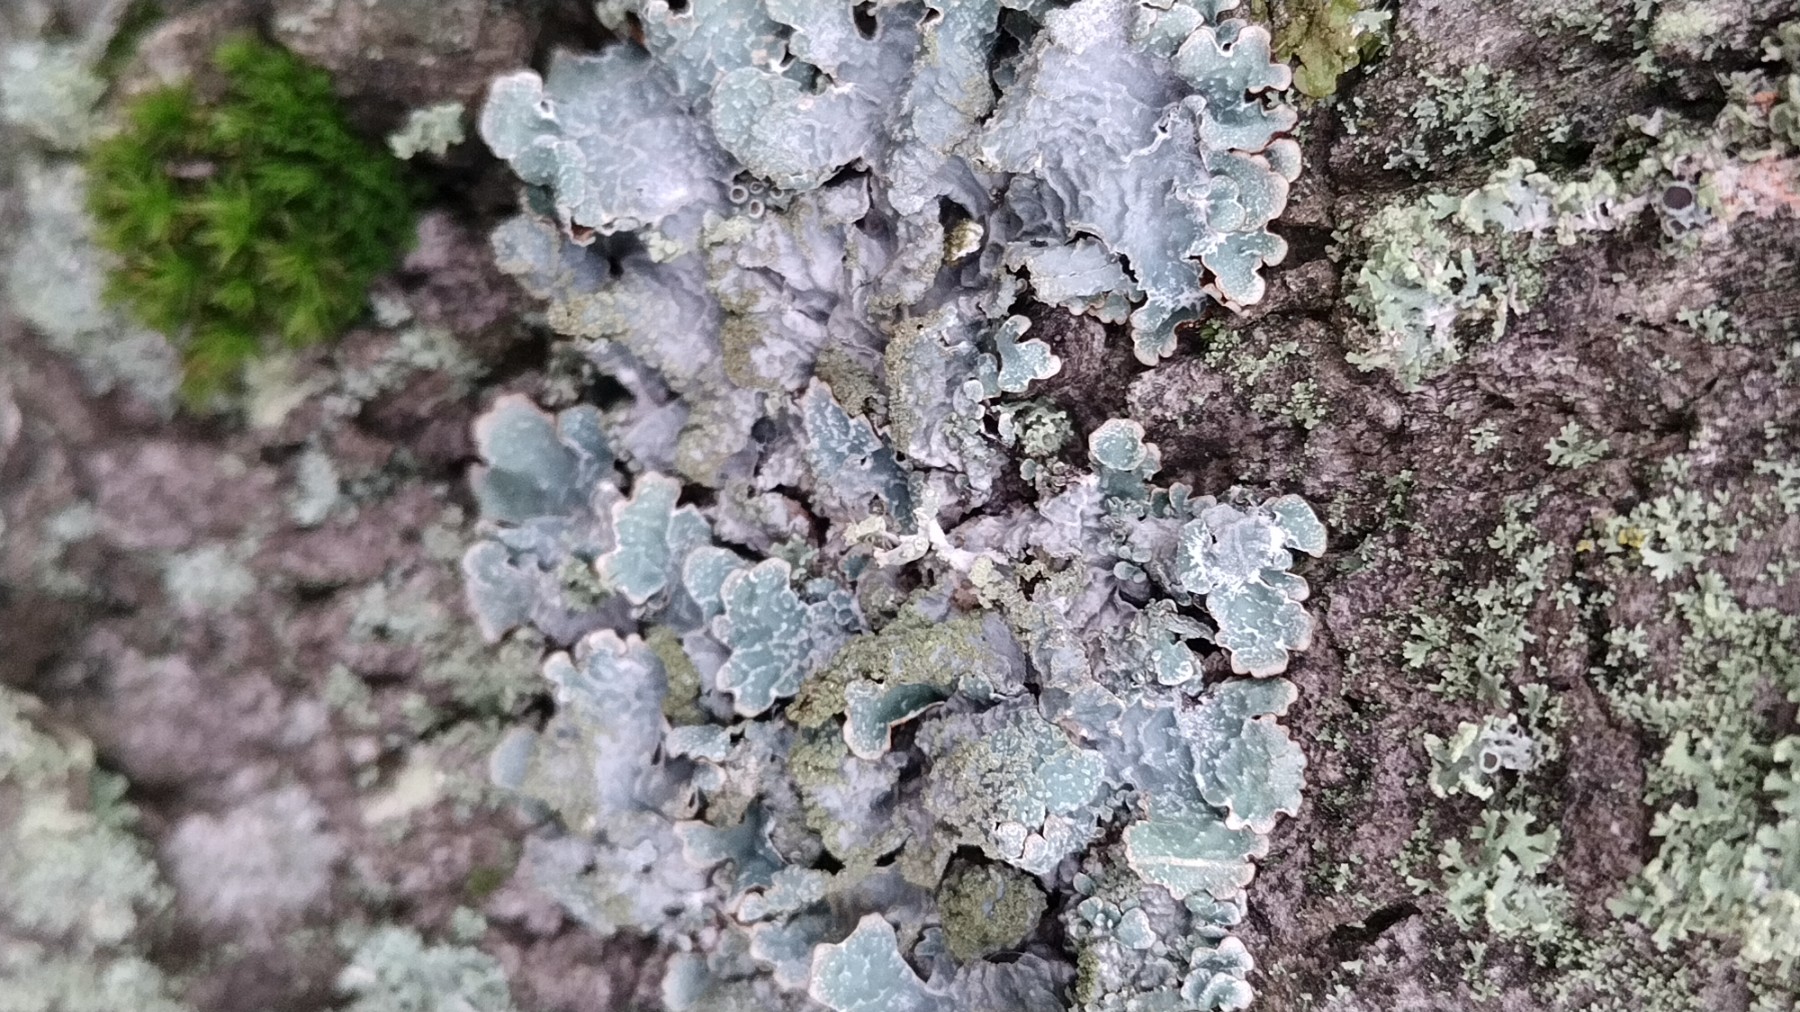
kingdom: Fungi
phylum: Ascomycota
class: Lecanoromycetes
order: Lecanorales
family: Parmeliaceae
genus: Parmelia
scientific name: Parmelia sulcata
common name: rynket skållav
